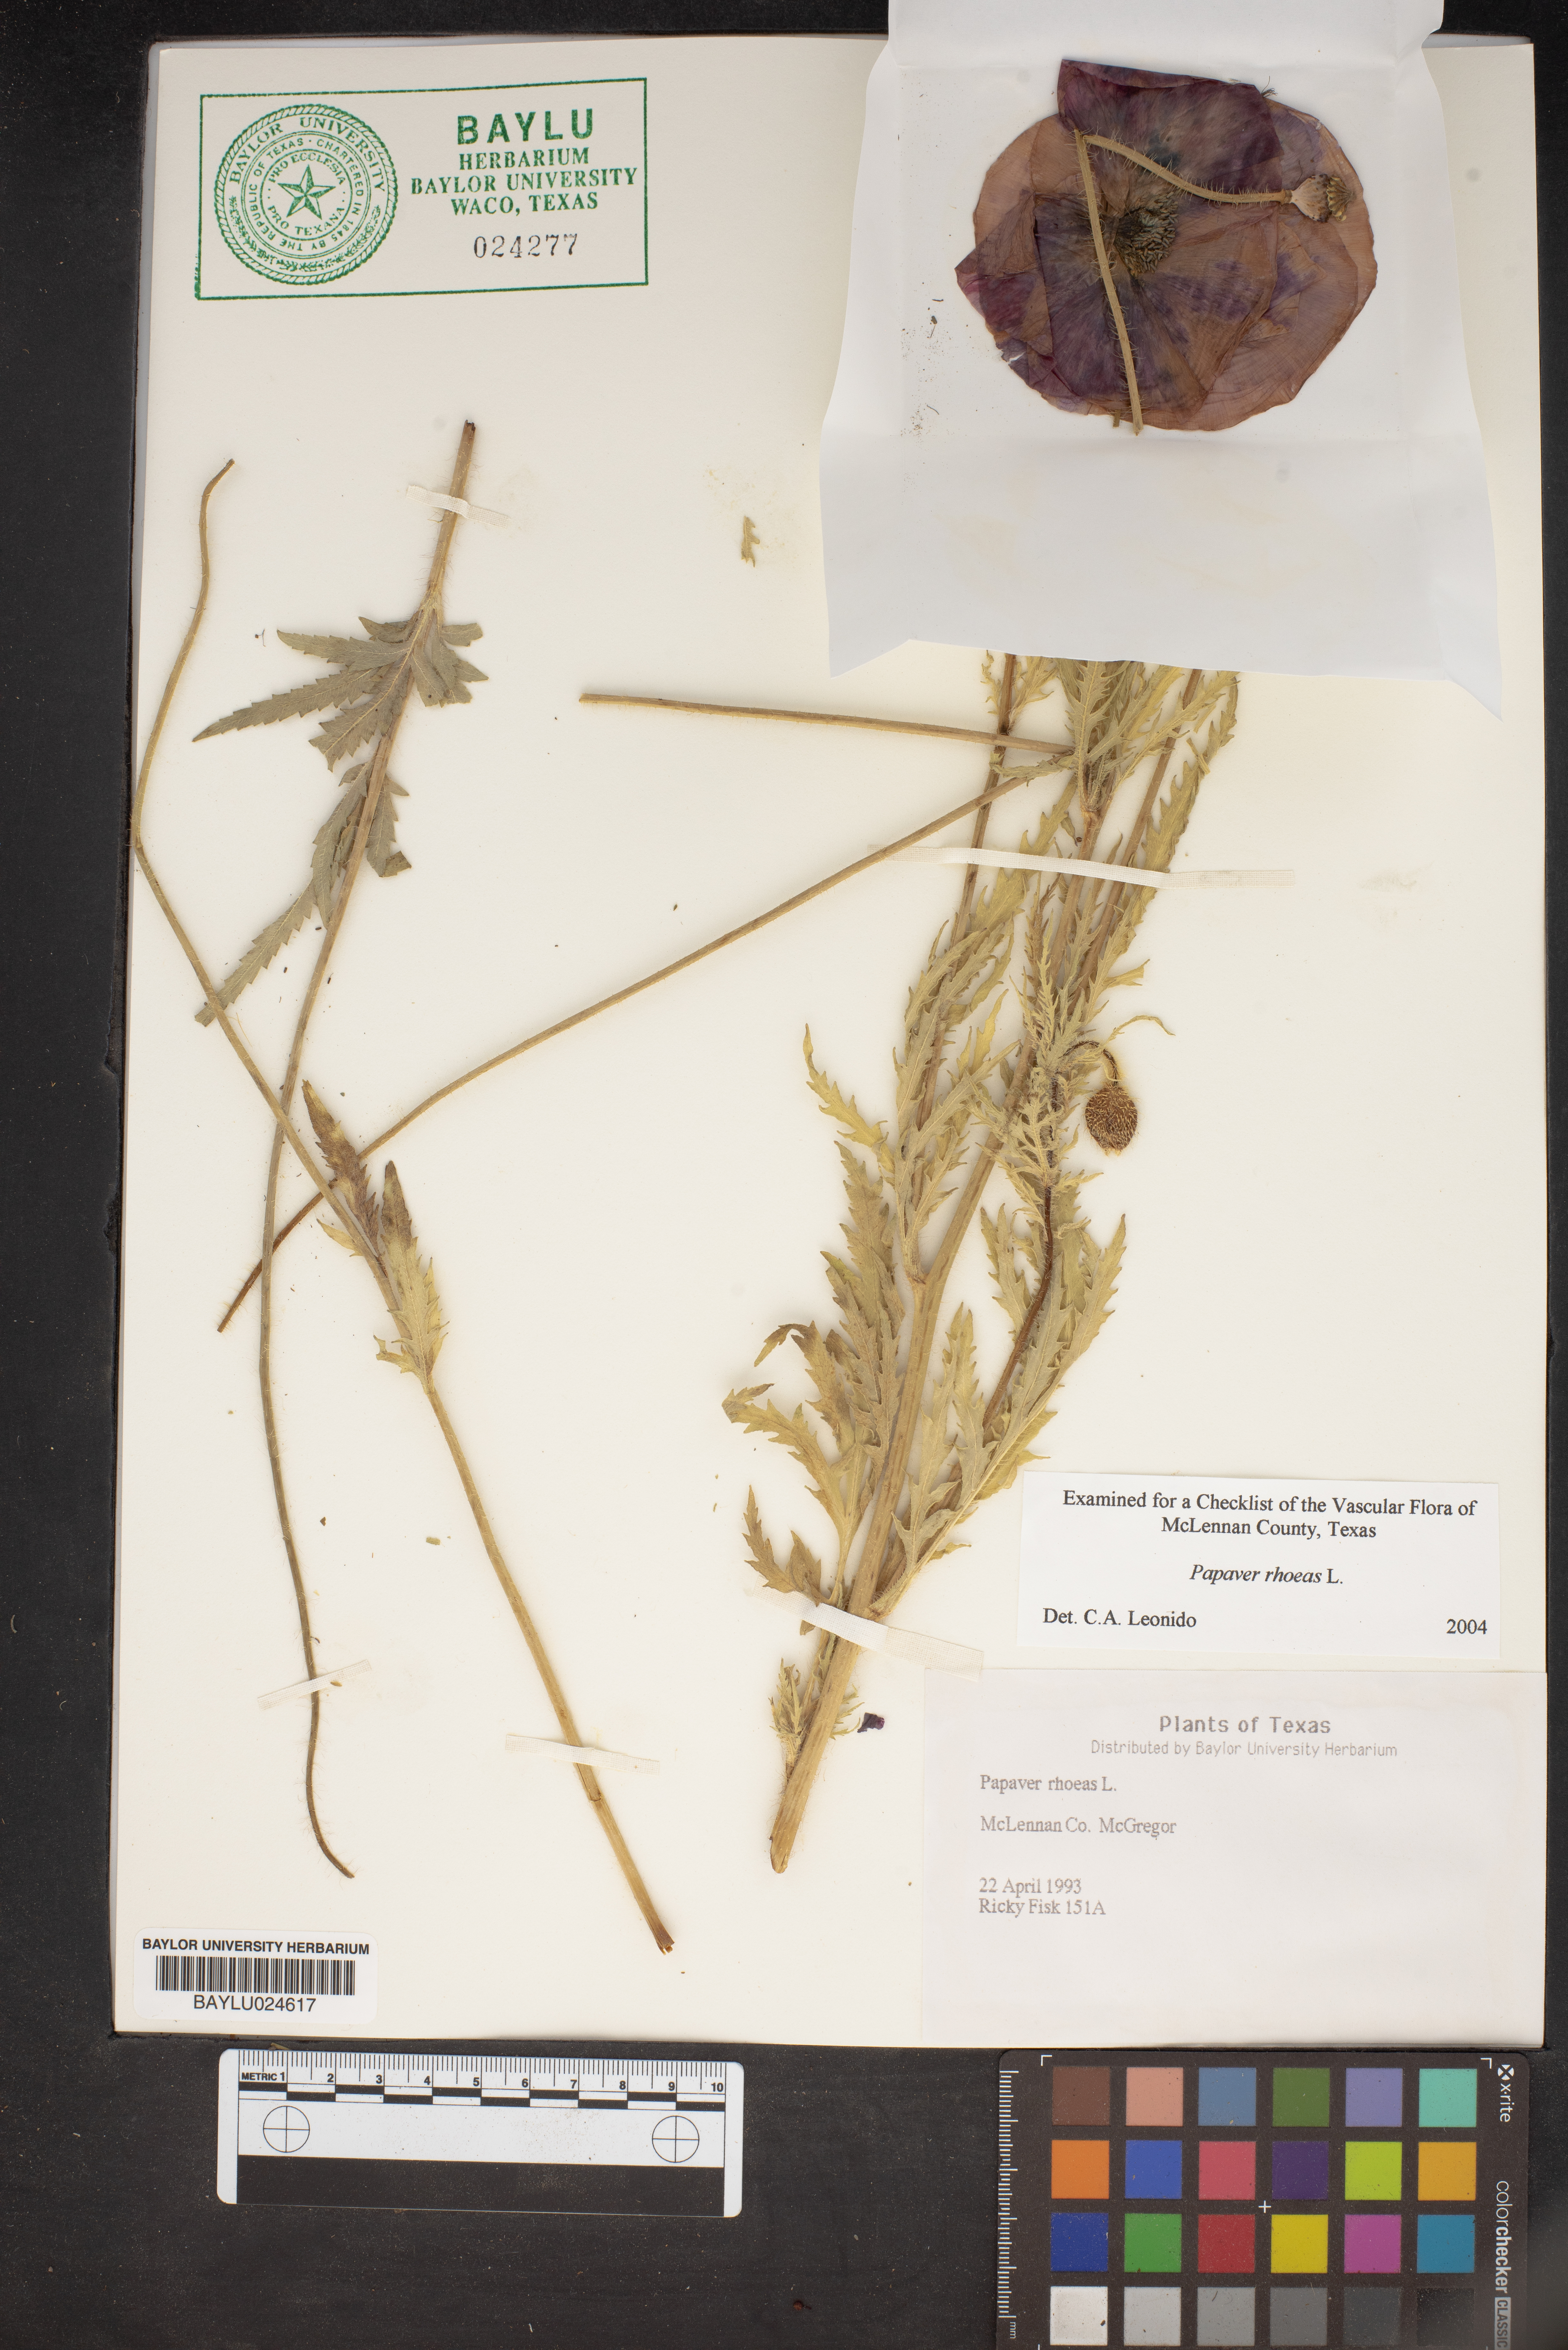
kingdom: Plantae
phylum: Tracheophyta
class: Magnoliopsida
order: Ranunculales
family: Papaveraceae
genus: Papaver
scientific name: Papaver rhoeas
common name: Corn poppy
